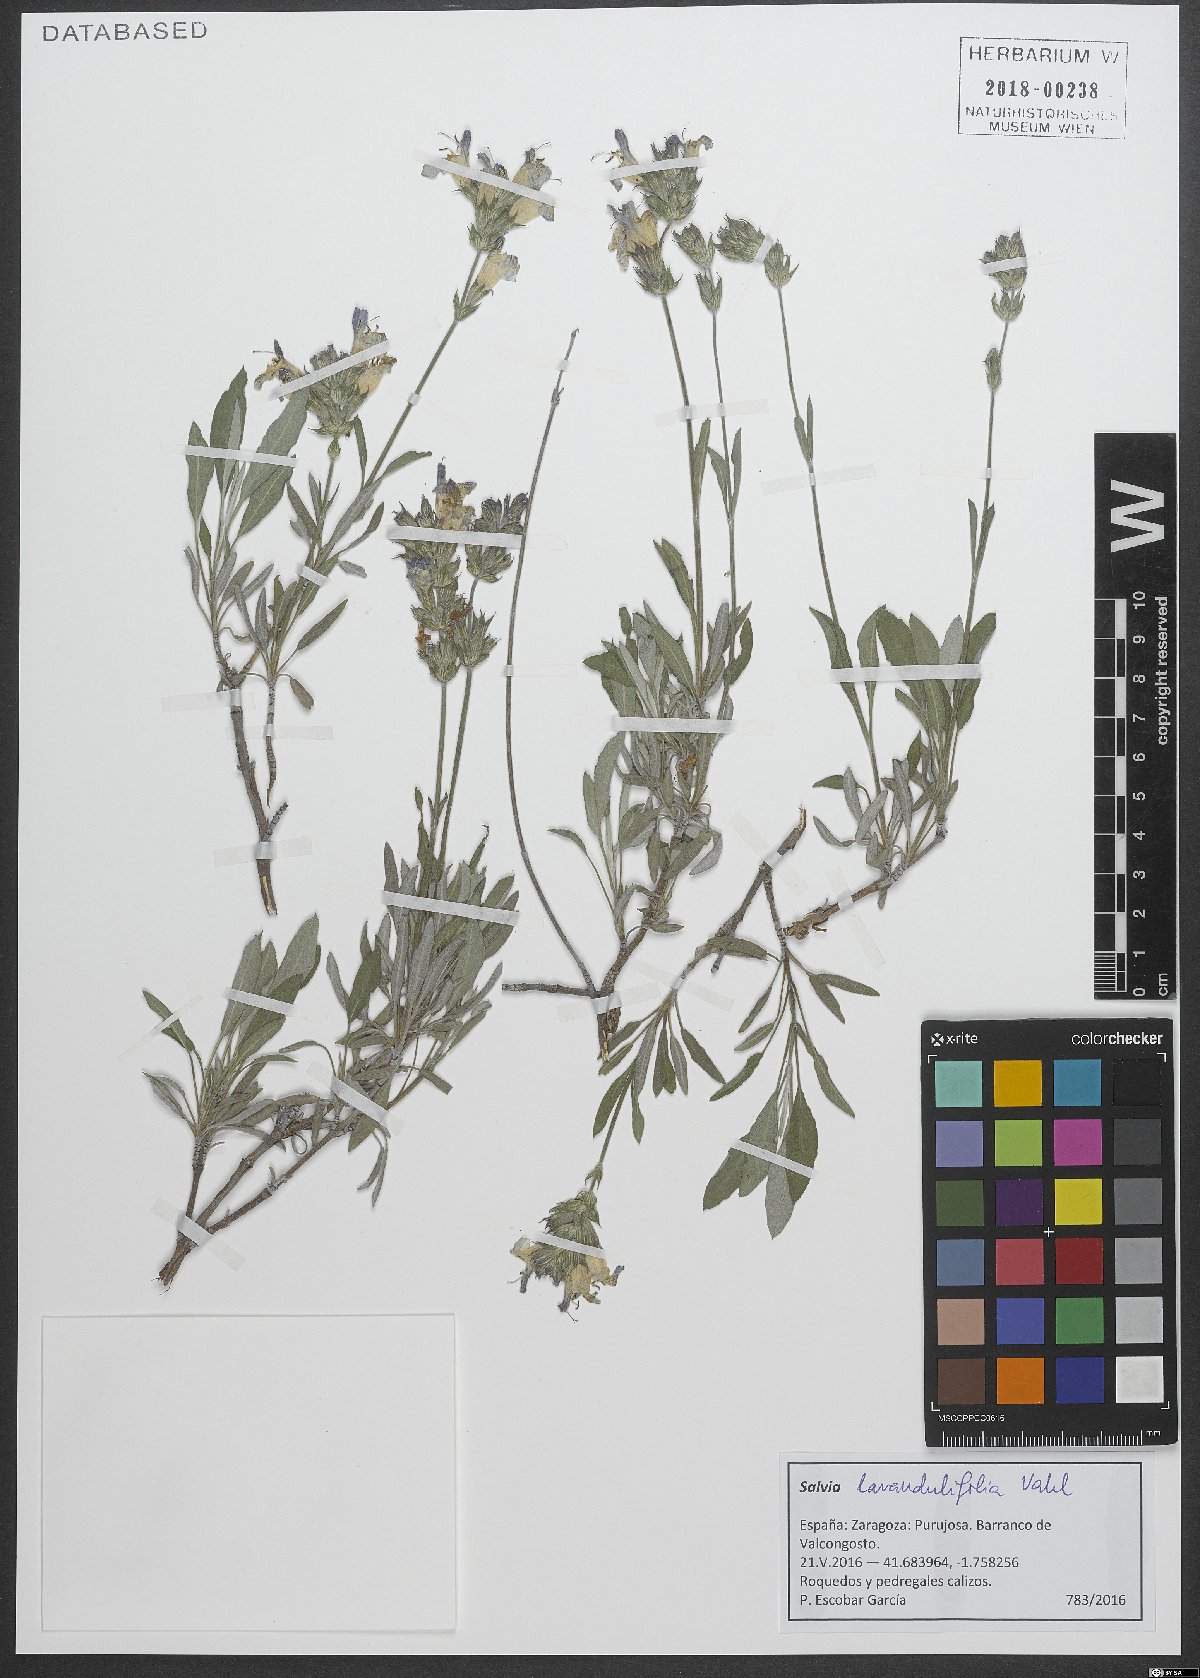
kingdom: Plantae
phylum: Tracheophyta
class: Magnoliopsida
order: Lamiales
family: Lamiaceae
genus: Salvia
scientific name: Salvia officinalis
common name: Sage
